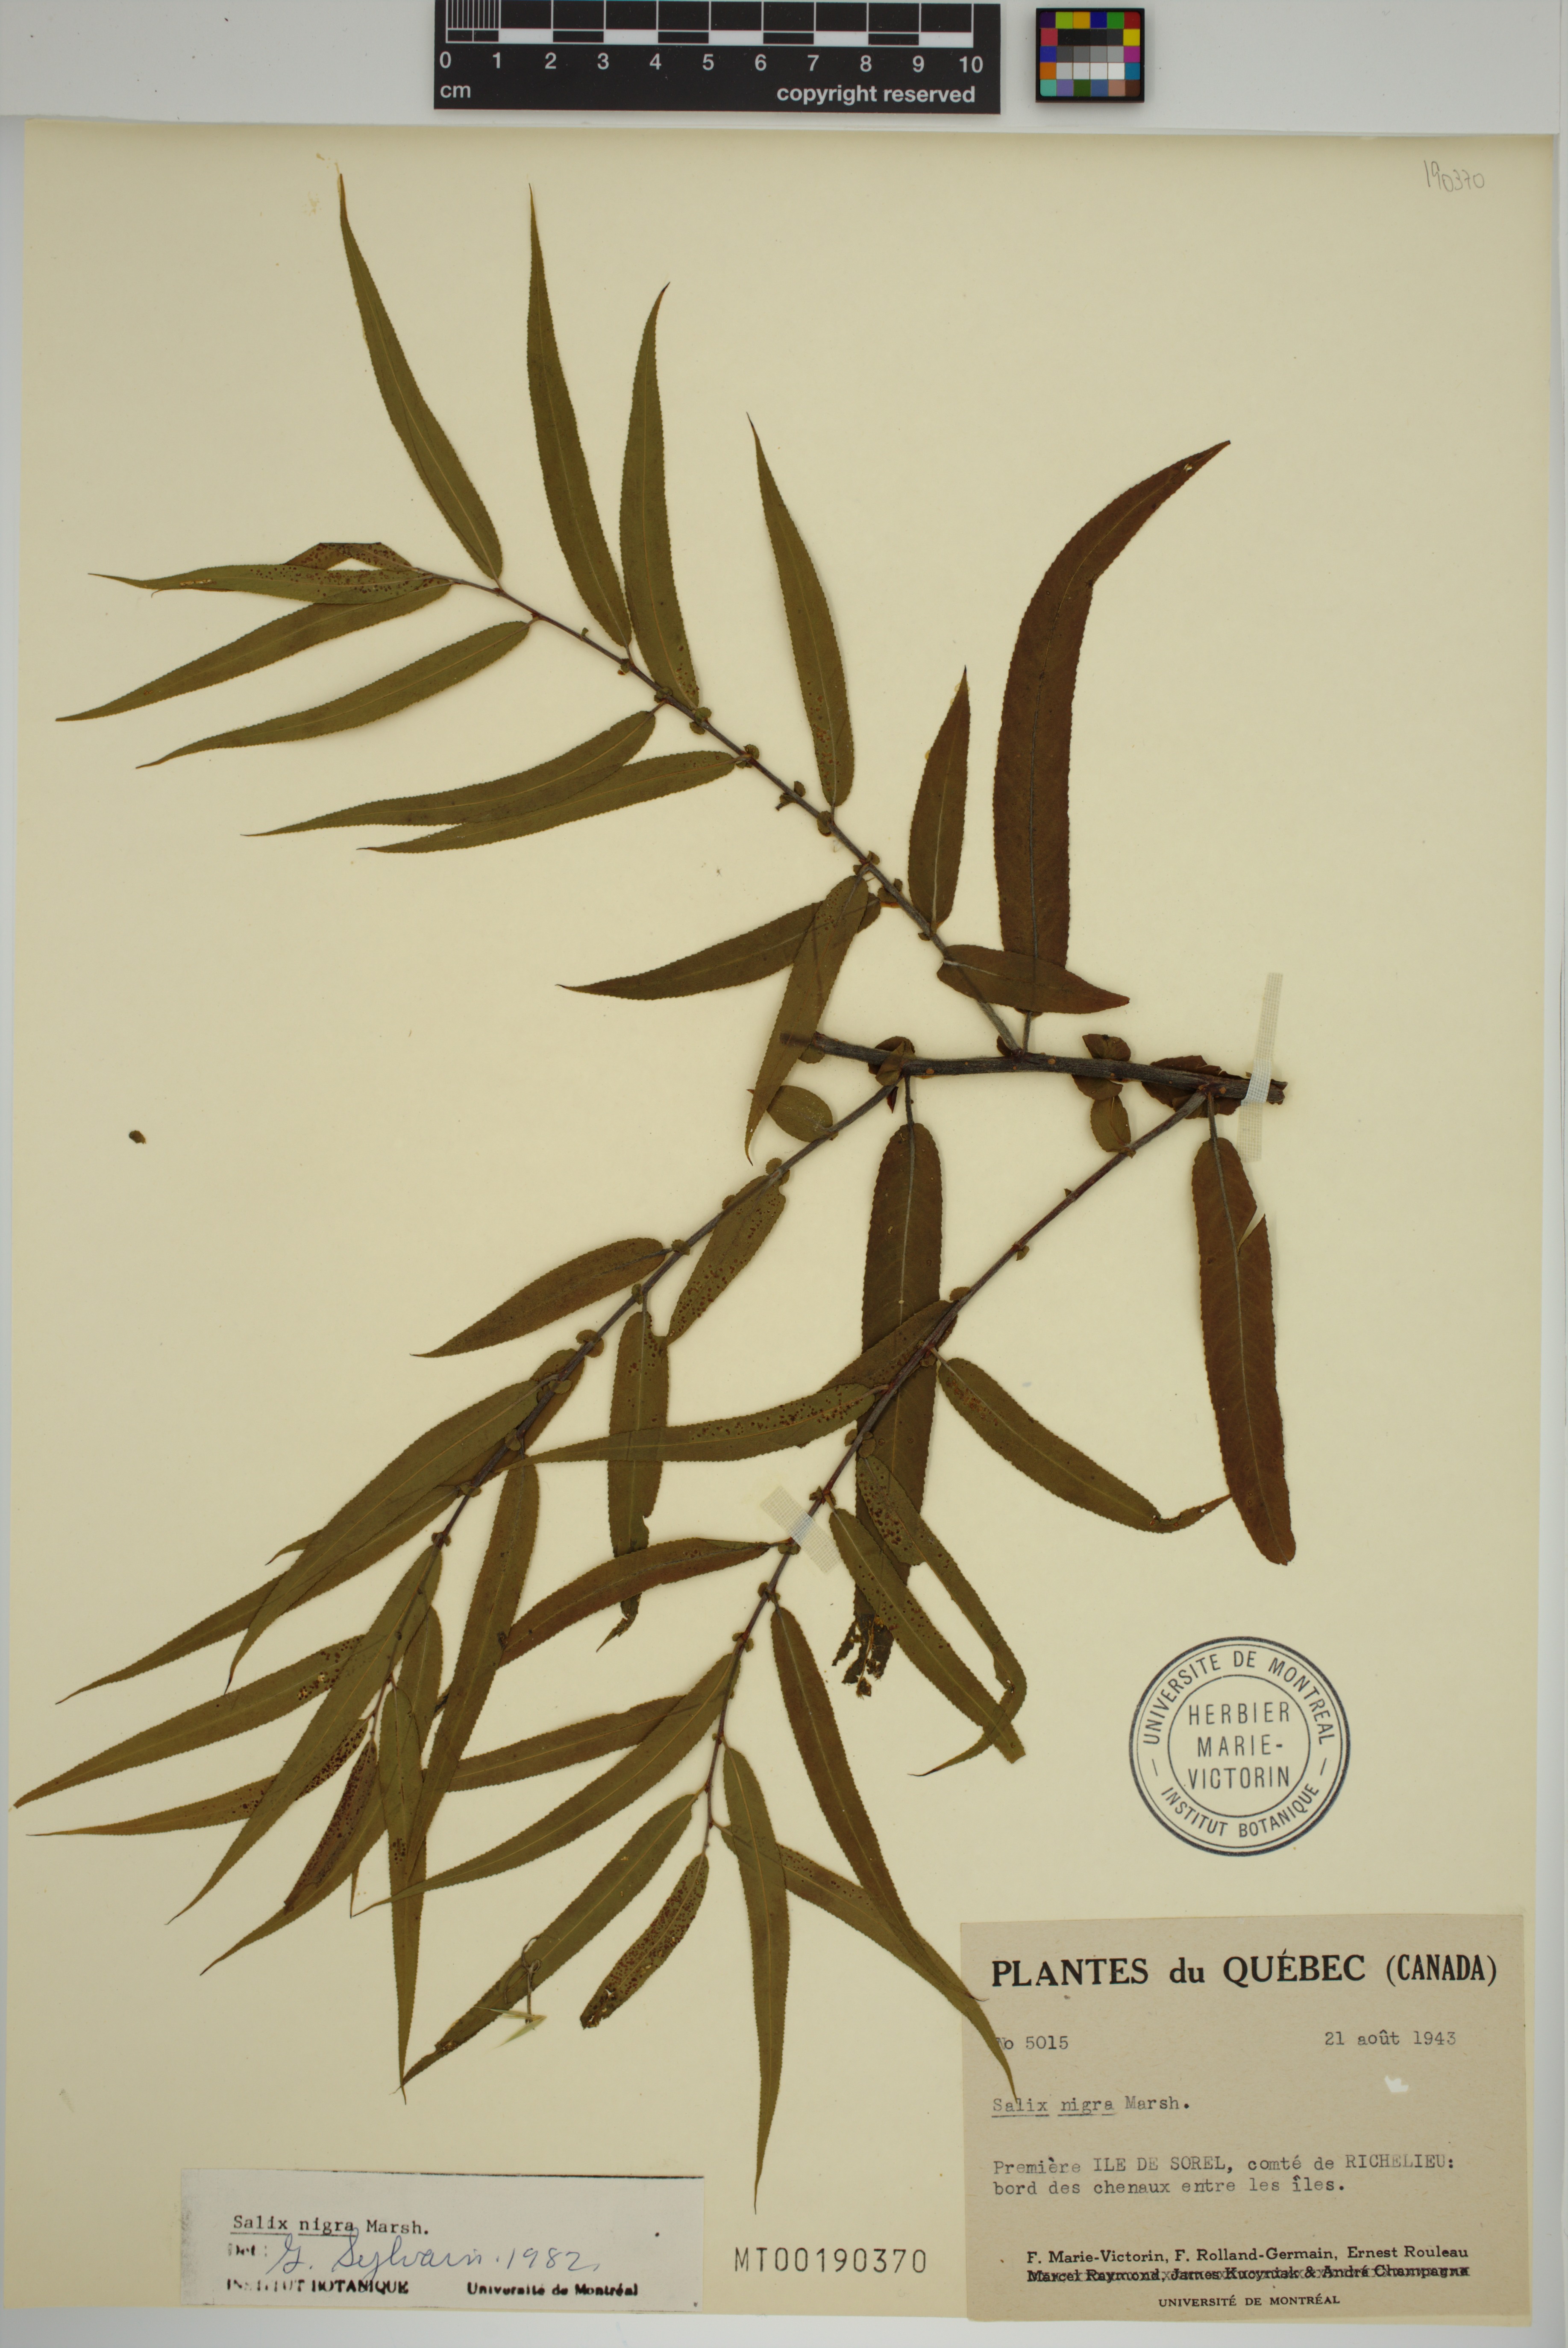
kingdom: Plantae
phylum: Tracheophyta
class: Magnoliopsida
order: Malpighiales
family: Salicaceae
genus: Salix
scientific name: Salix nigra
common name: Black willow
